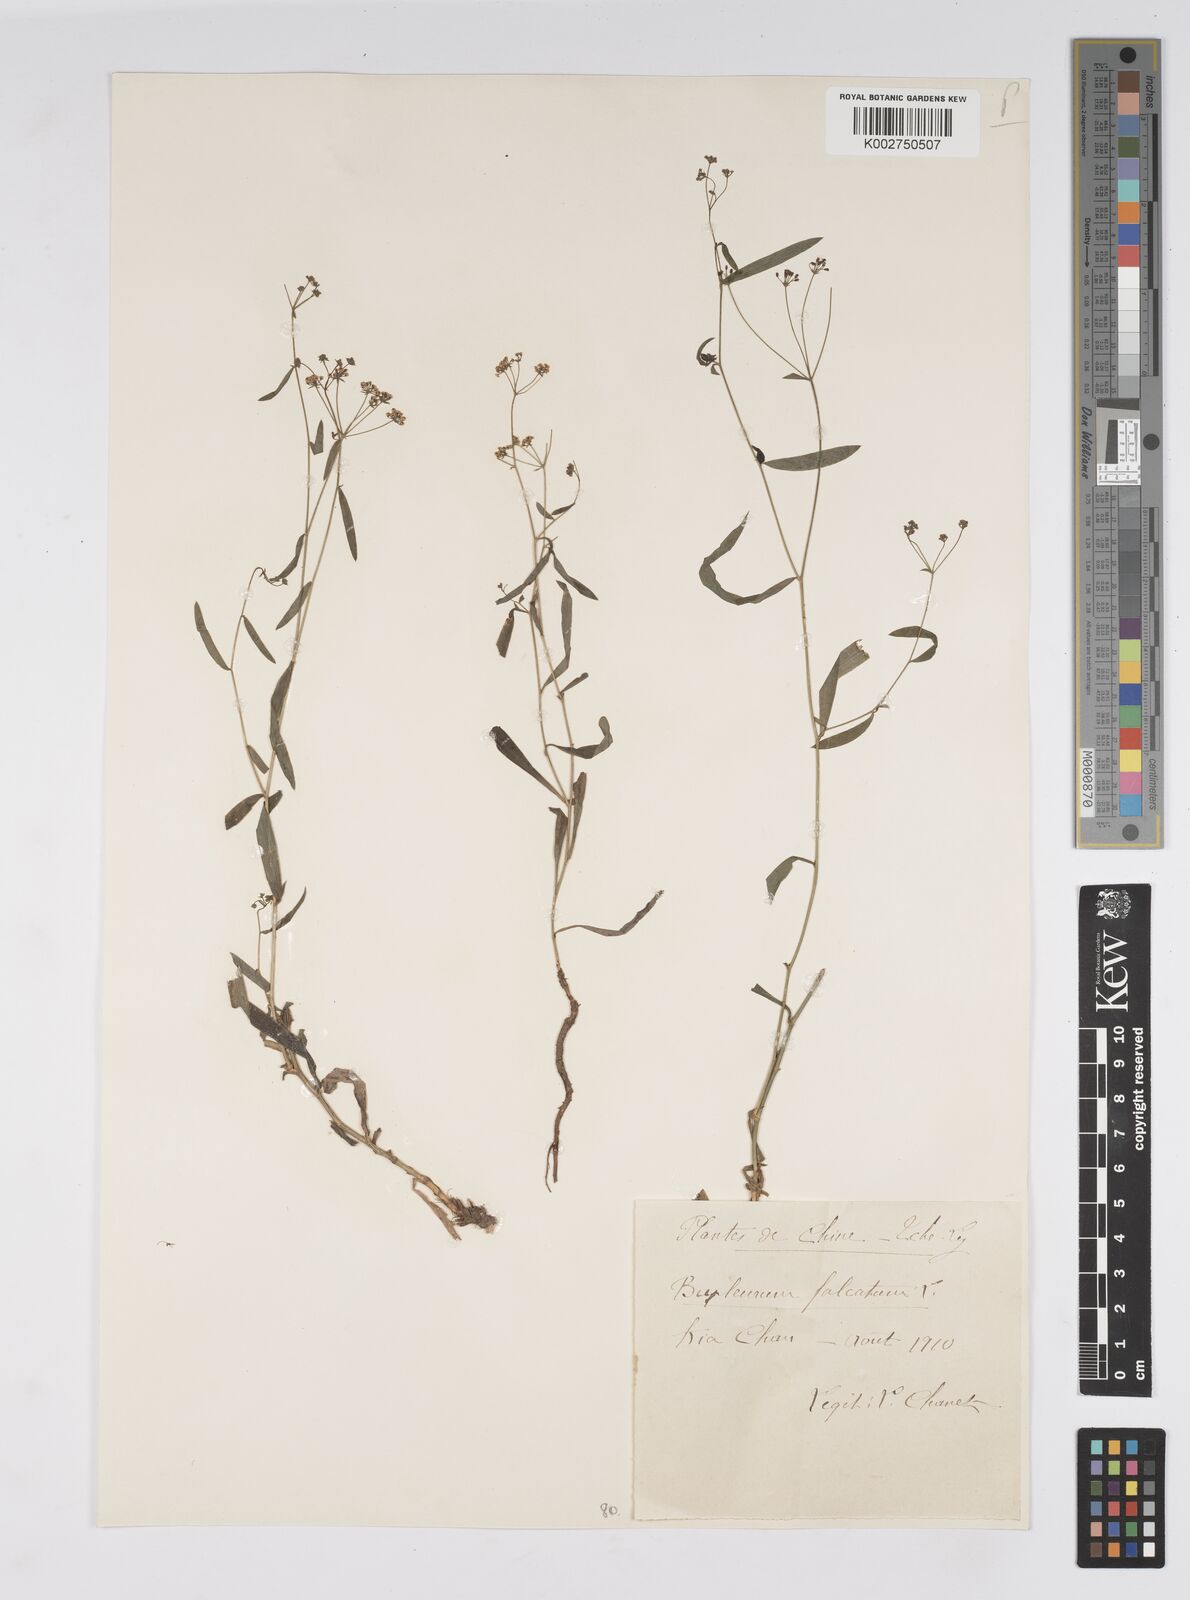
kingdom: Plantae
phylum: Tracheophyta
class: Magnoliopsida
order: Apiales
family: Apiaceae
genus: Bupleurum
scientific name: Bupleurum krylovianum
